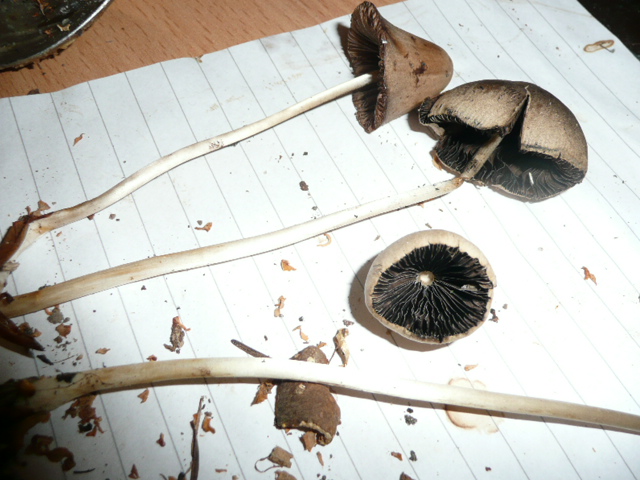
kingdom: Fungi
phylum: Basidiomycota
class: Agaricomycetes
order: Agaricales
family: Psathyrellaceae
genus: Parasola
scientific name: Parasola conopilea
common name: kegle-hjulhat
